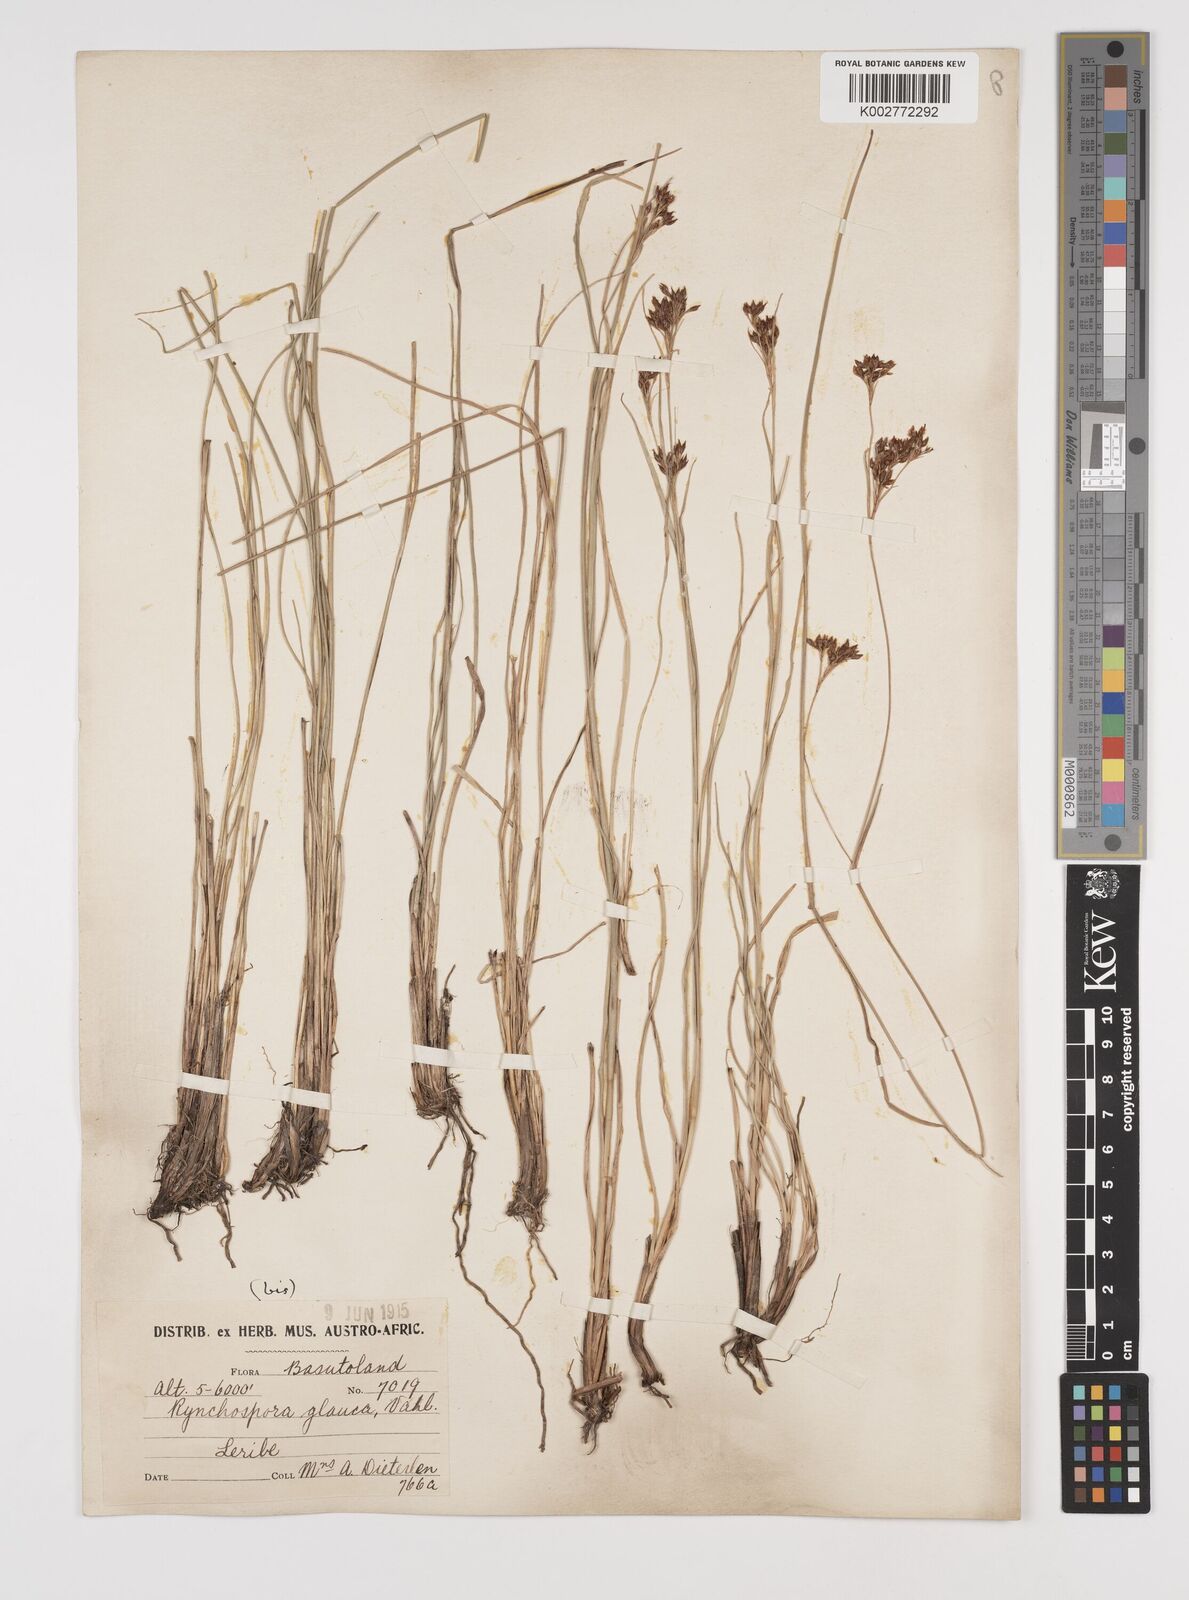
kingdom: Plantae
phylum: Tracheophyta
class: Liliopsida
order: Poales
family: Cyperaceae
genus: Rhynchospora
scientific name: Rhynchospora rugosa
